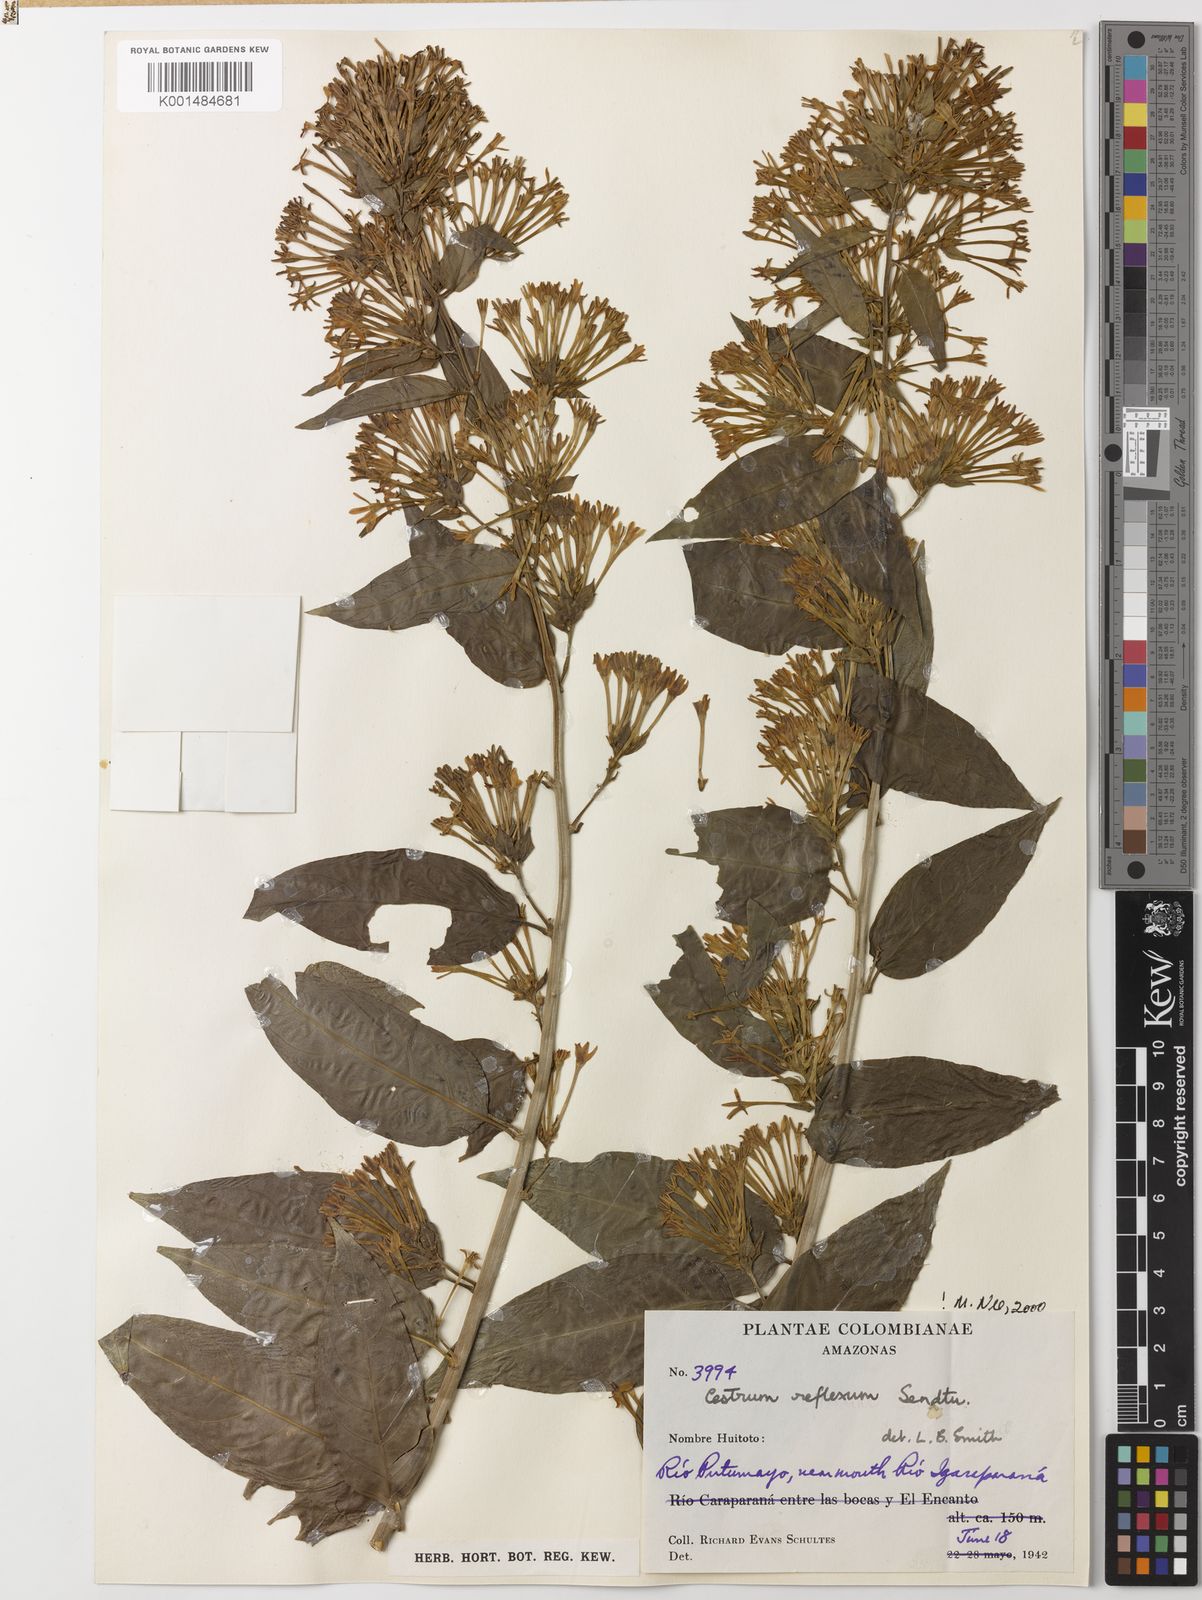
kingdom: Plantae
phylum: Tracheophyta
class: Magnoliopsida
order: Solanales
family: Solanaceae
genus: Cestrum
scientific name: Cestrum reflexum
